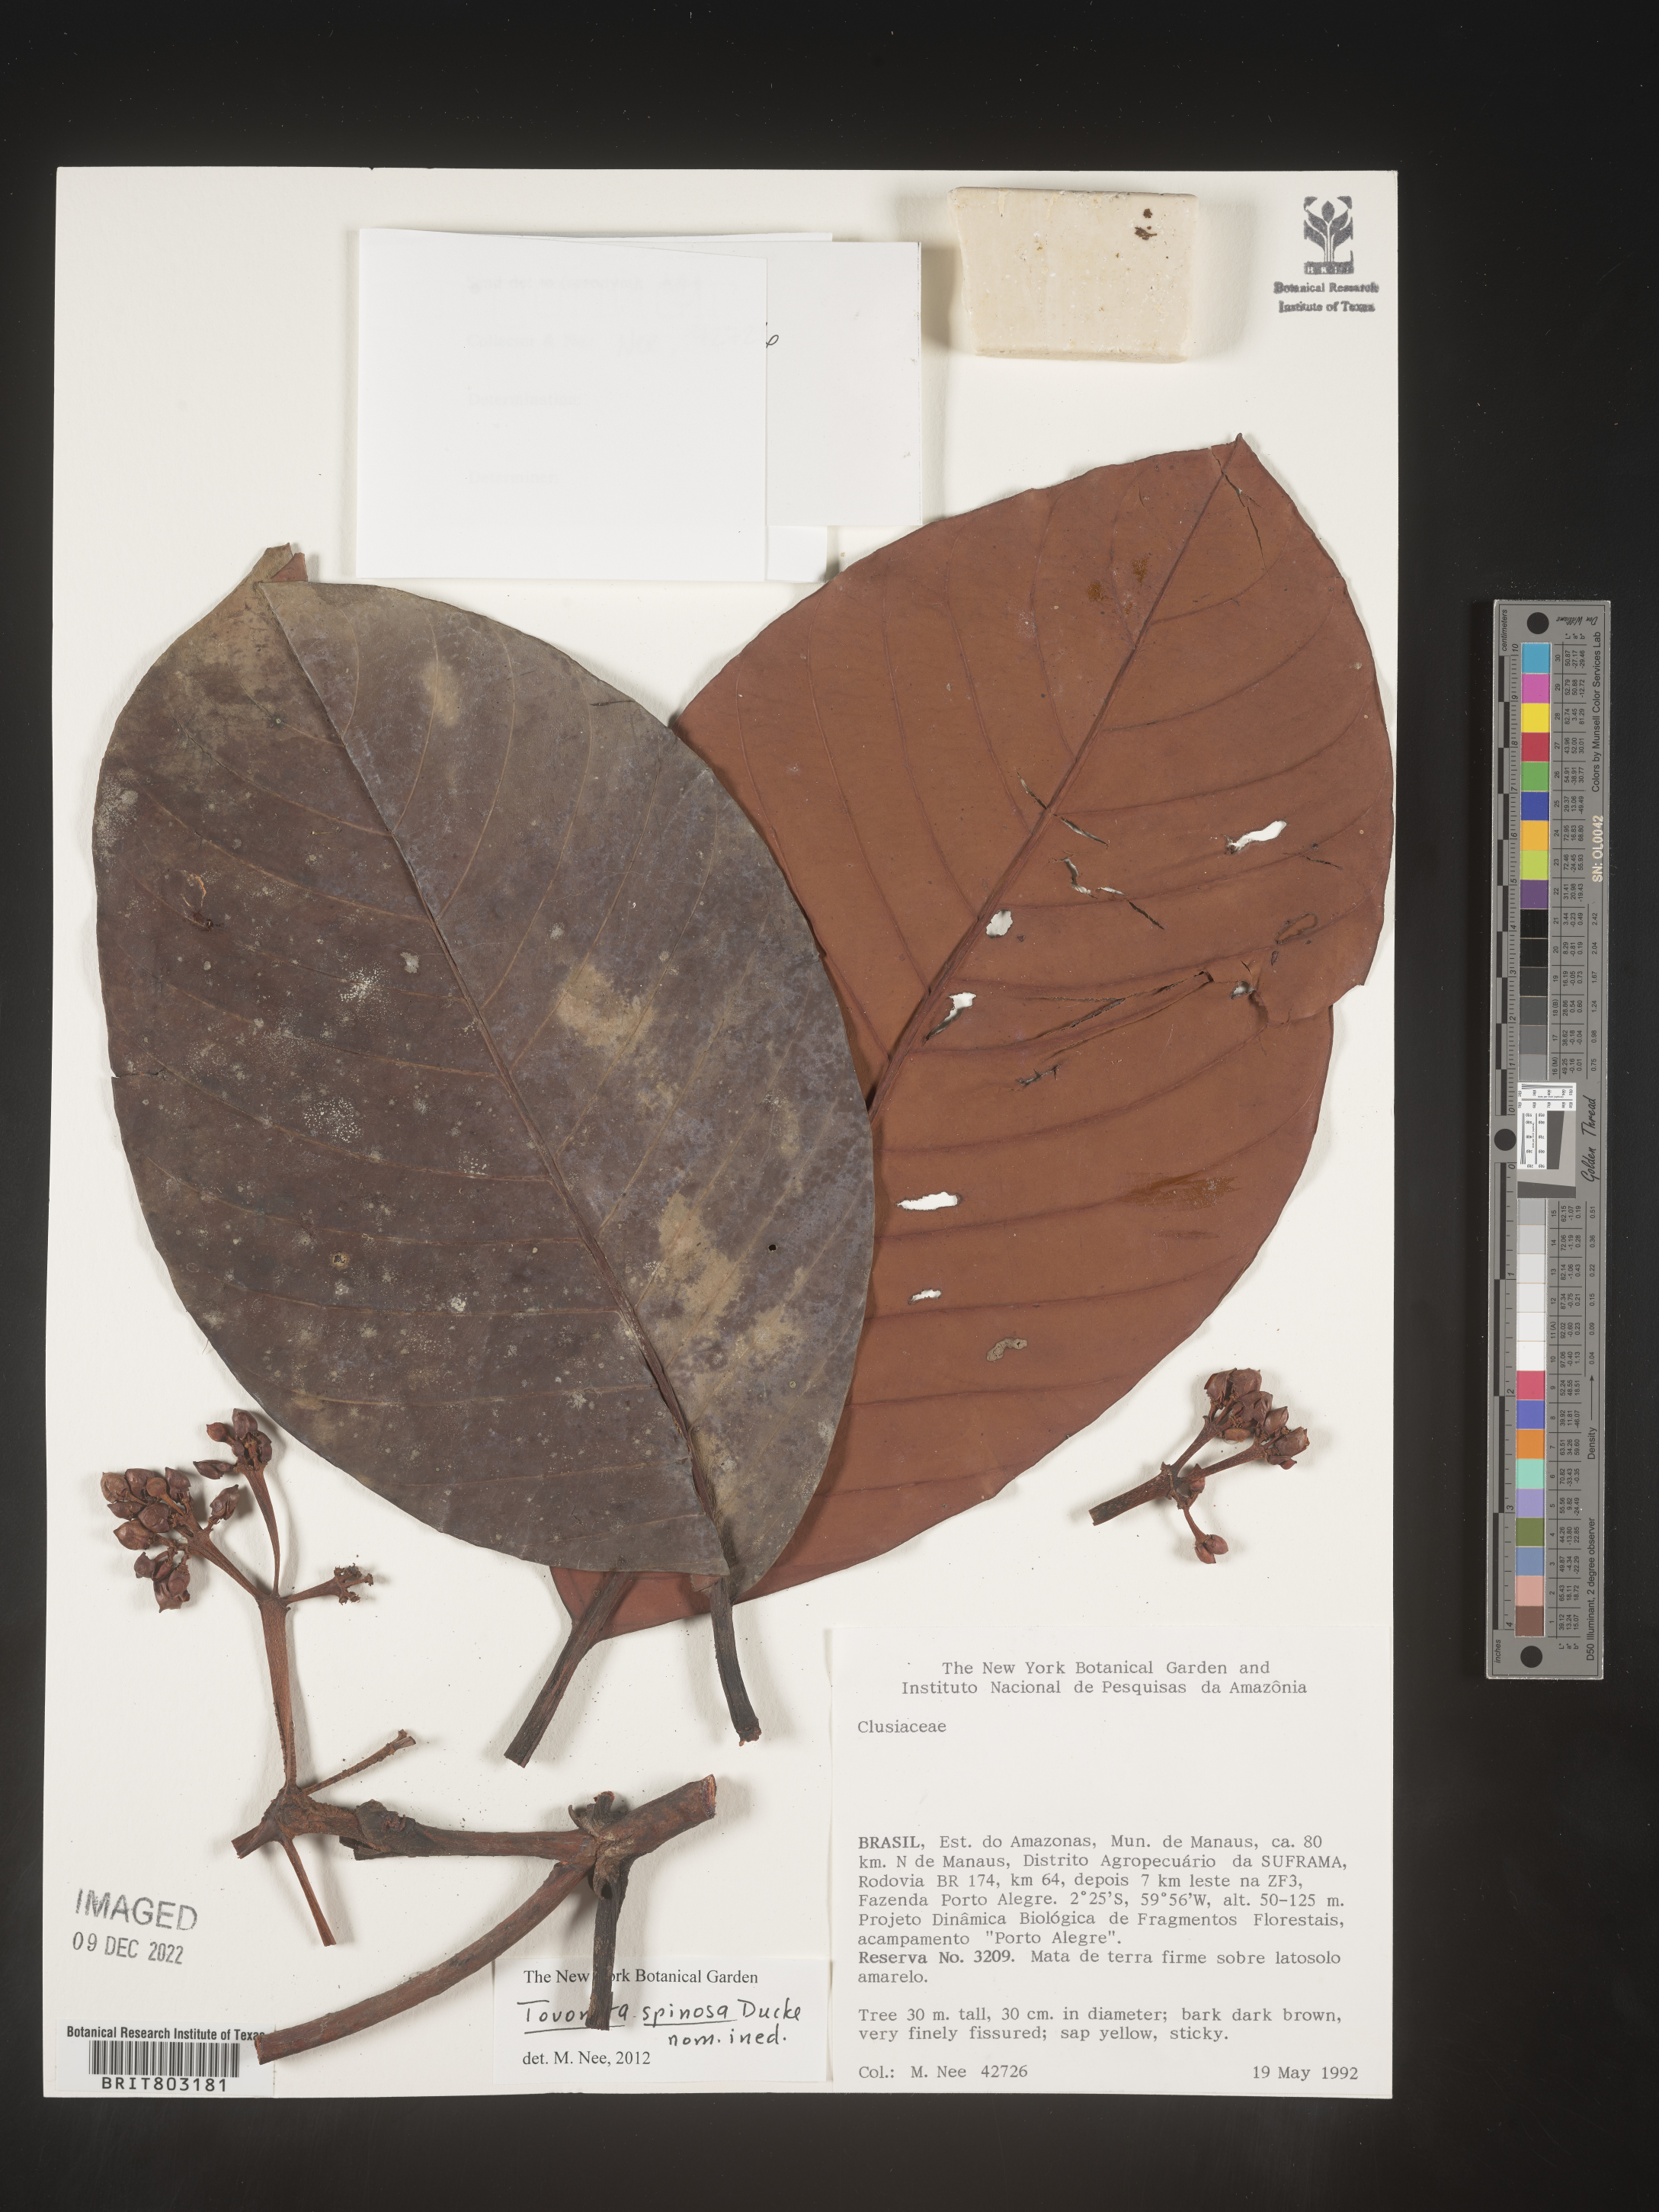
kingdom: Plantae
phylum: Tracheophyta
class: Magnoliopsida
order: Malpighiales
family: Clusiaceae
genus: Tovomita
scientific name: Tovomita
